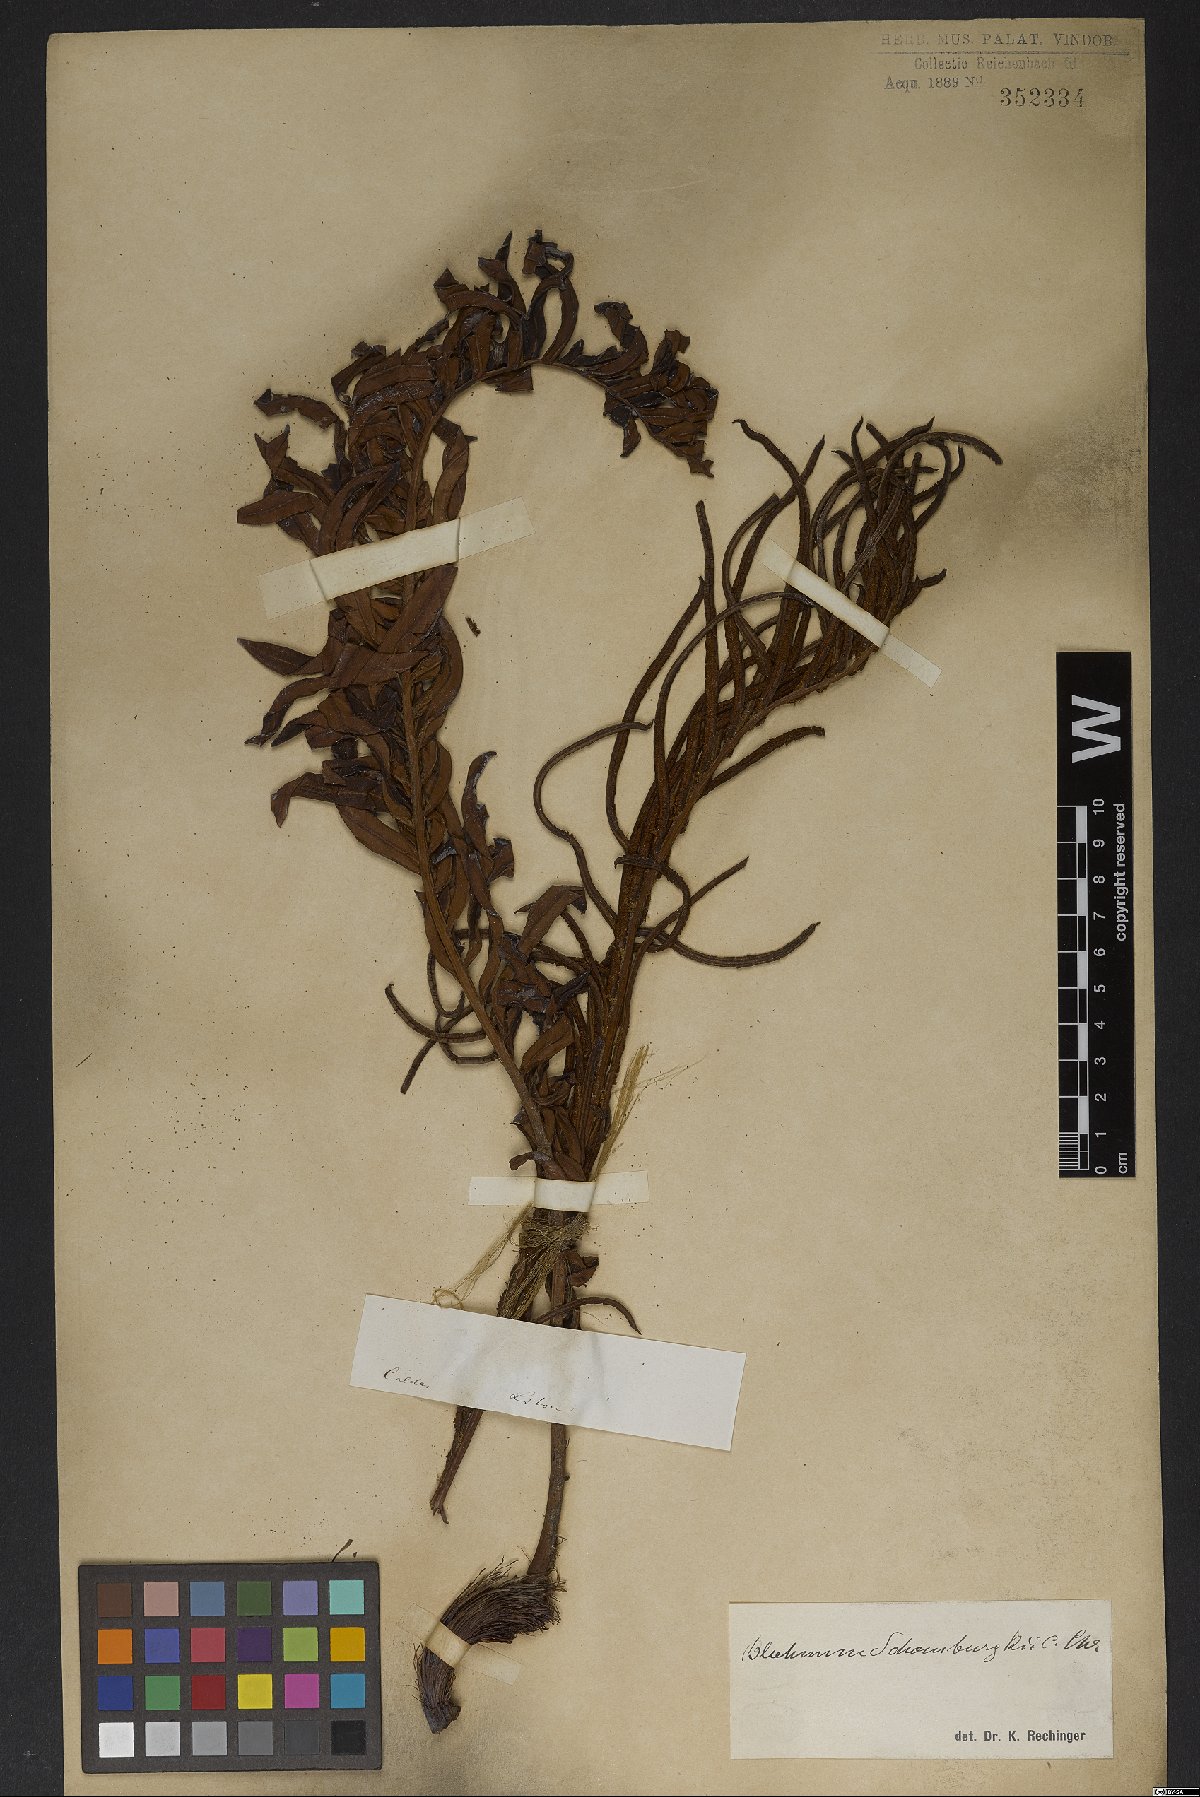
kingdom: Plantae
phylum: Tracheophyta
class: Polypodiopsida
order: Polypodiales
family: Blechnaceae
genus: Lomariocycas
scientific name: Lomariocycas schomburgkii
